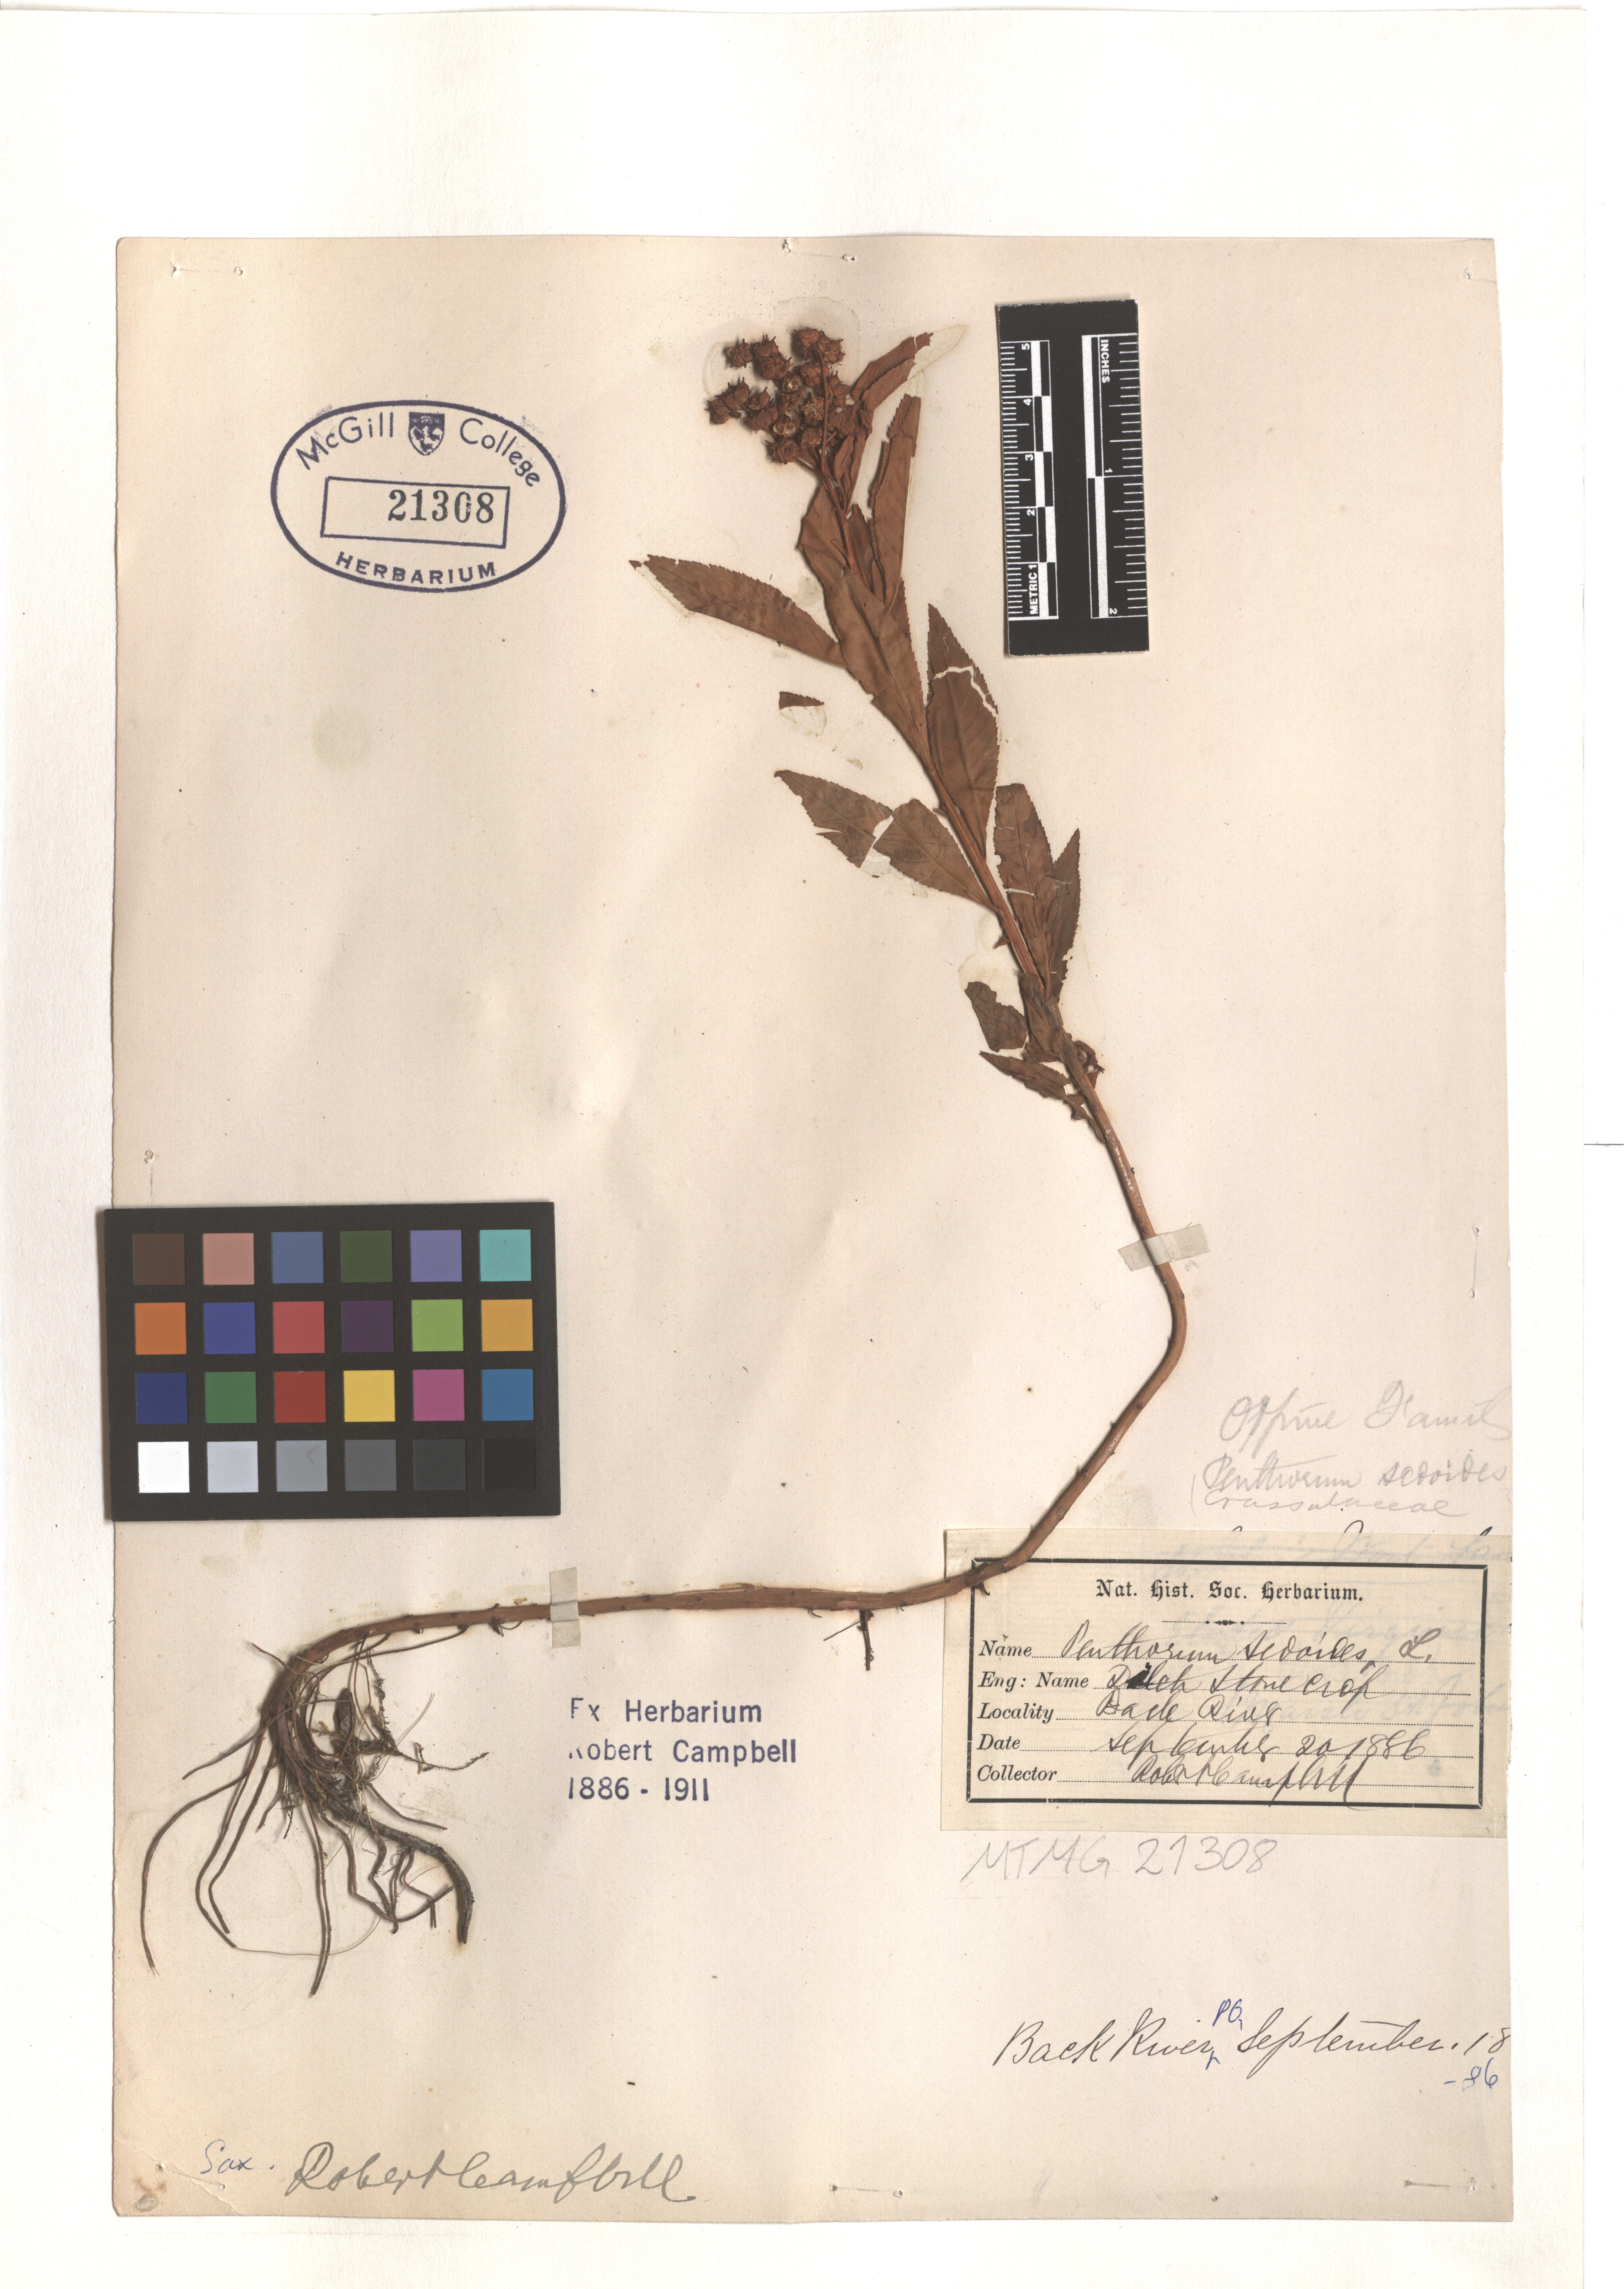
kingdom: Plantae
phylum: Tracheophyta
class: Magnoliopsida
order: Saxifragales
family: Penthoraceae
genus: Penthorum
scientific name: Penthorum sedoides
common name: Ditch stonecrop
